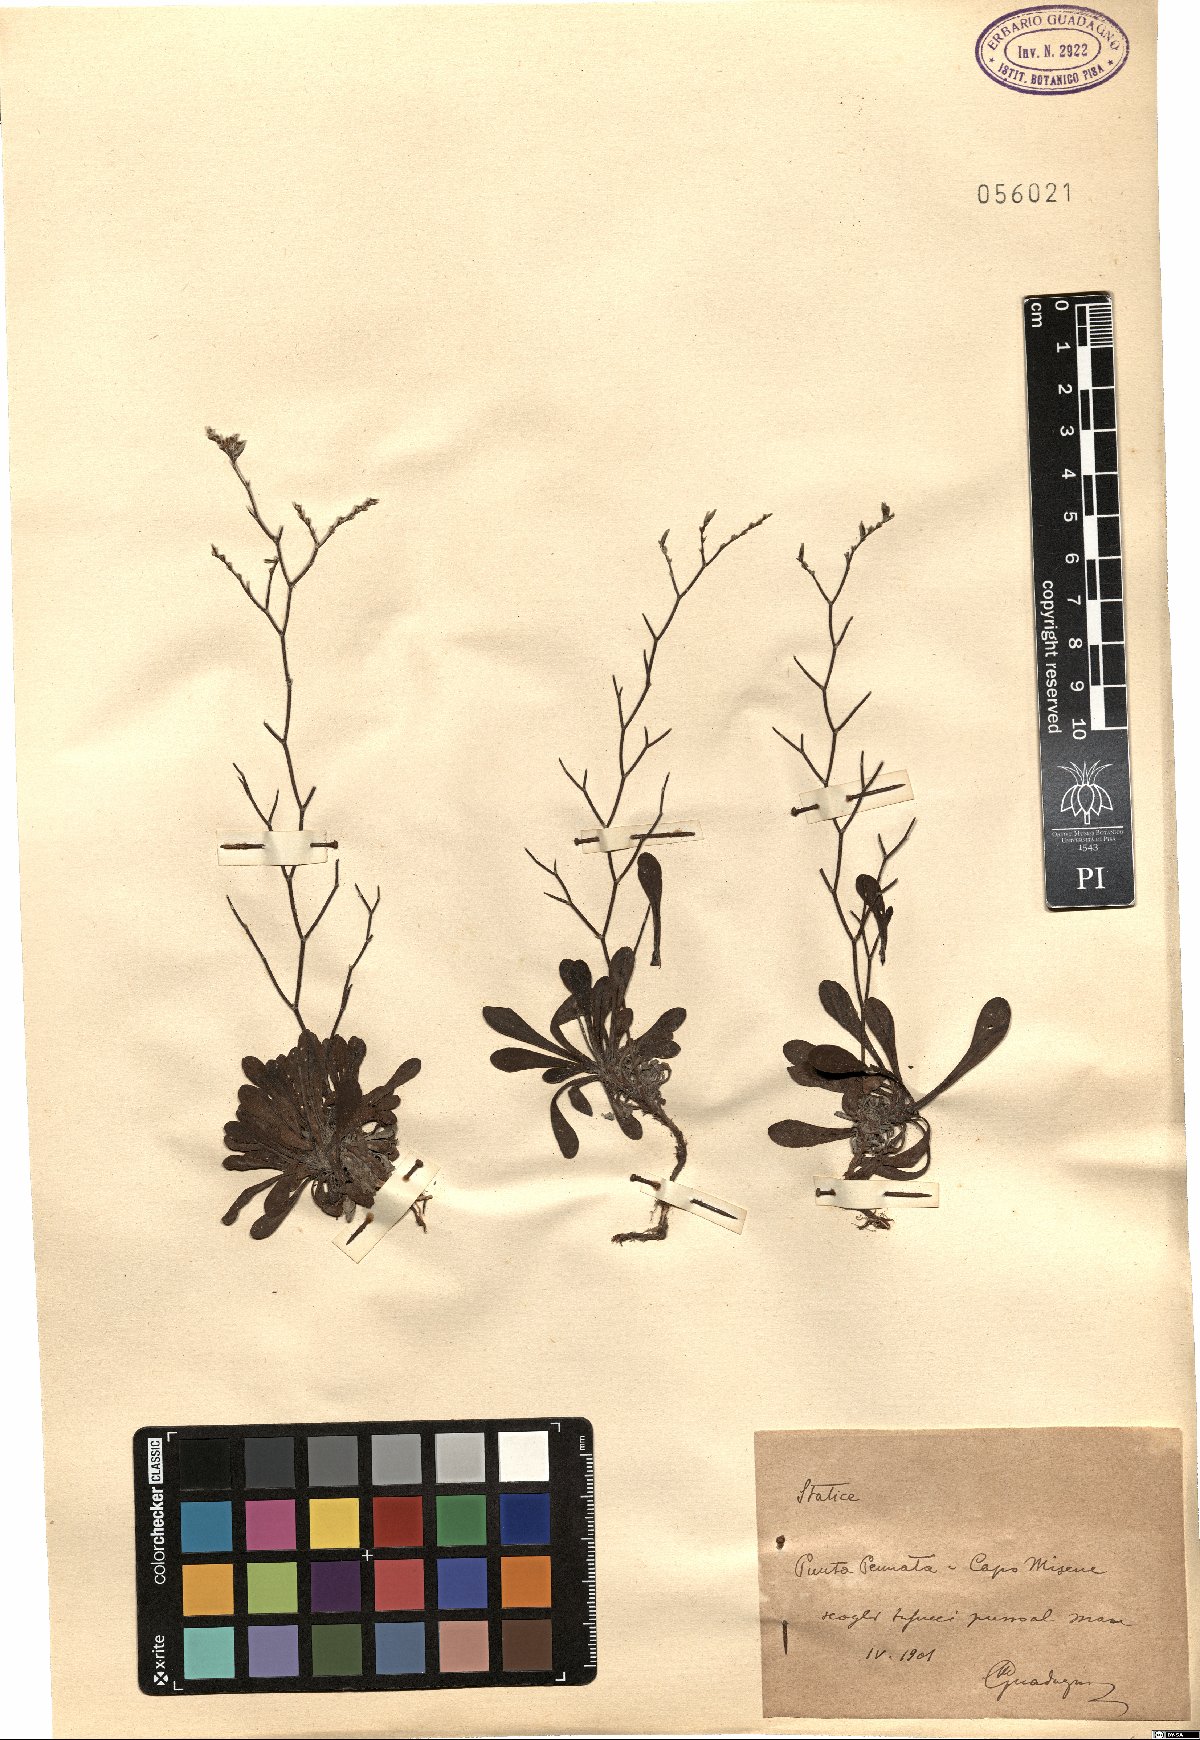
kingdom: Plantae
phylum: Tracheophyta
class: Magnoliopsida
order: Caryophyllales
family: Plumbaginaceae
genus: Armeria
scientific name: Armeria
